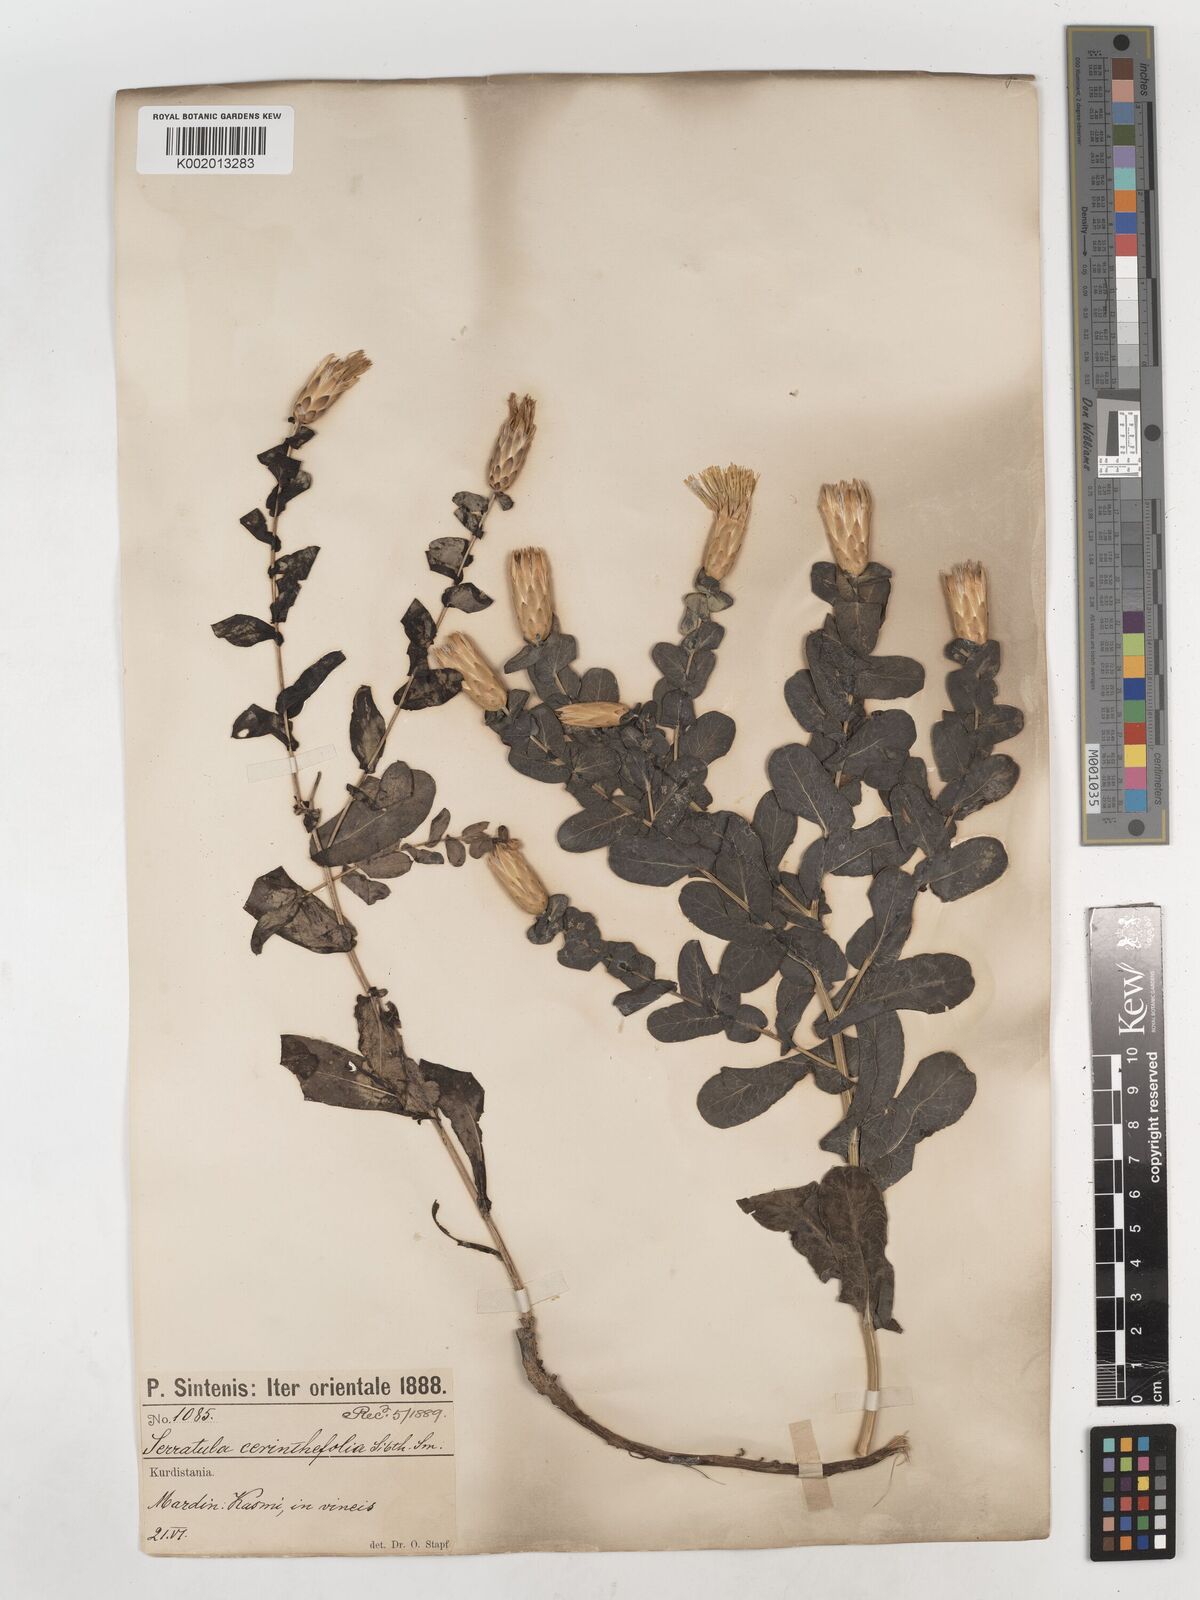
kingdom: Plantae
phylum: Tracheophyta
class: Magnoliopsida
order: Asterales
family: Asteraceae
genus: Klasea
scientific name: Klasea cerinthifolia
